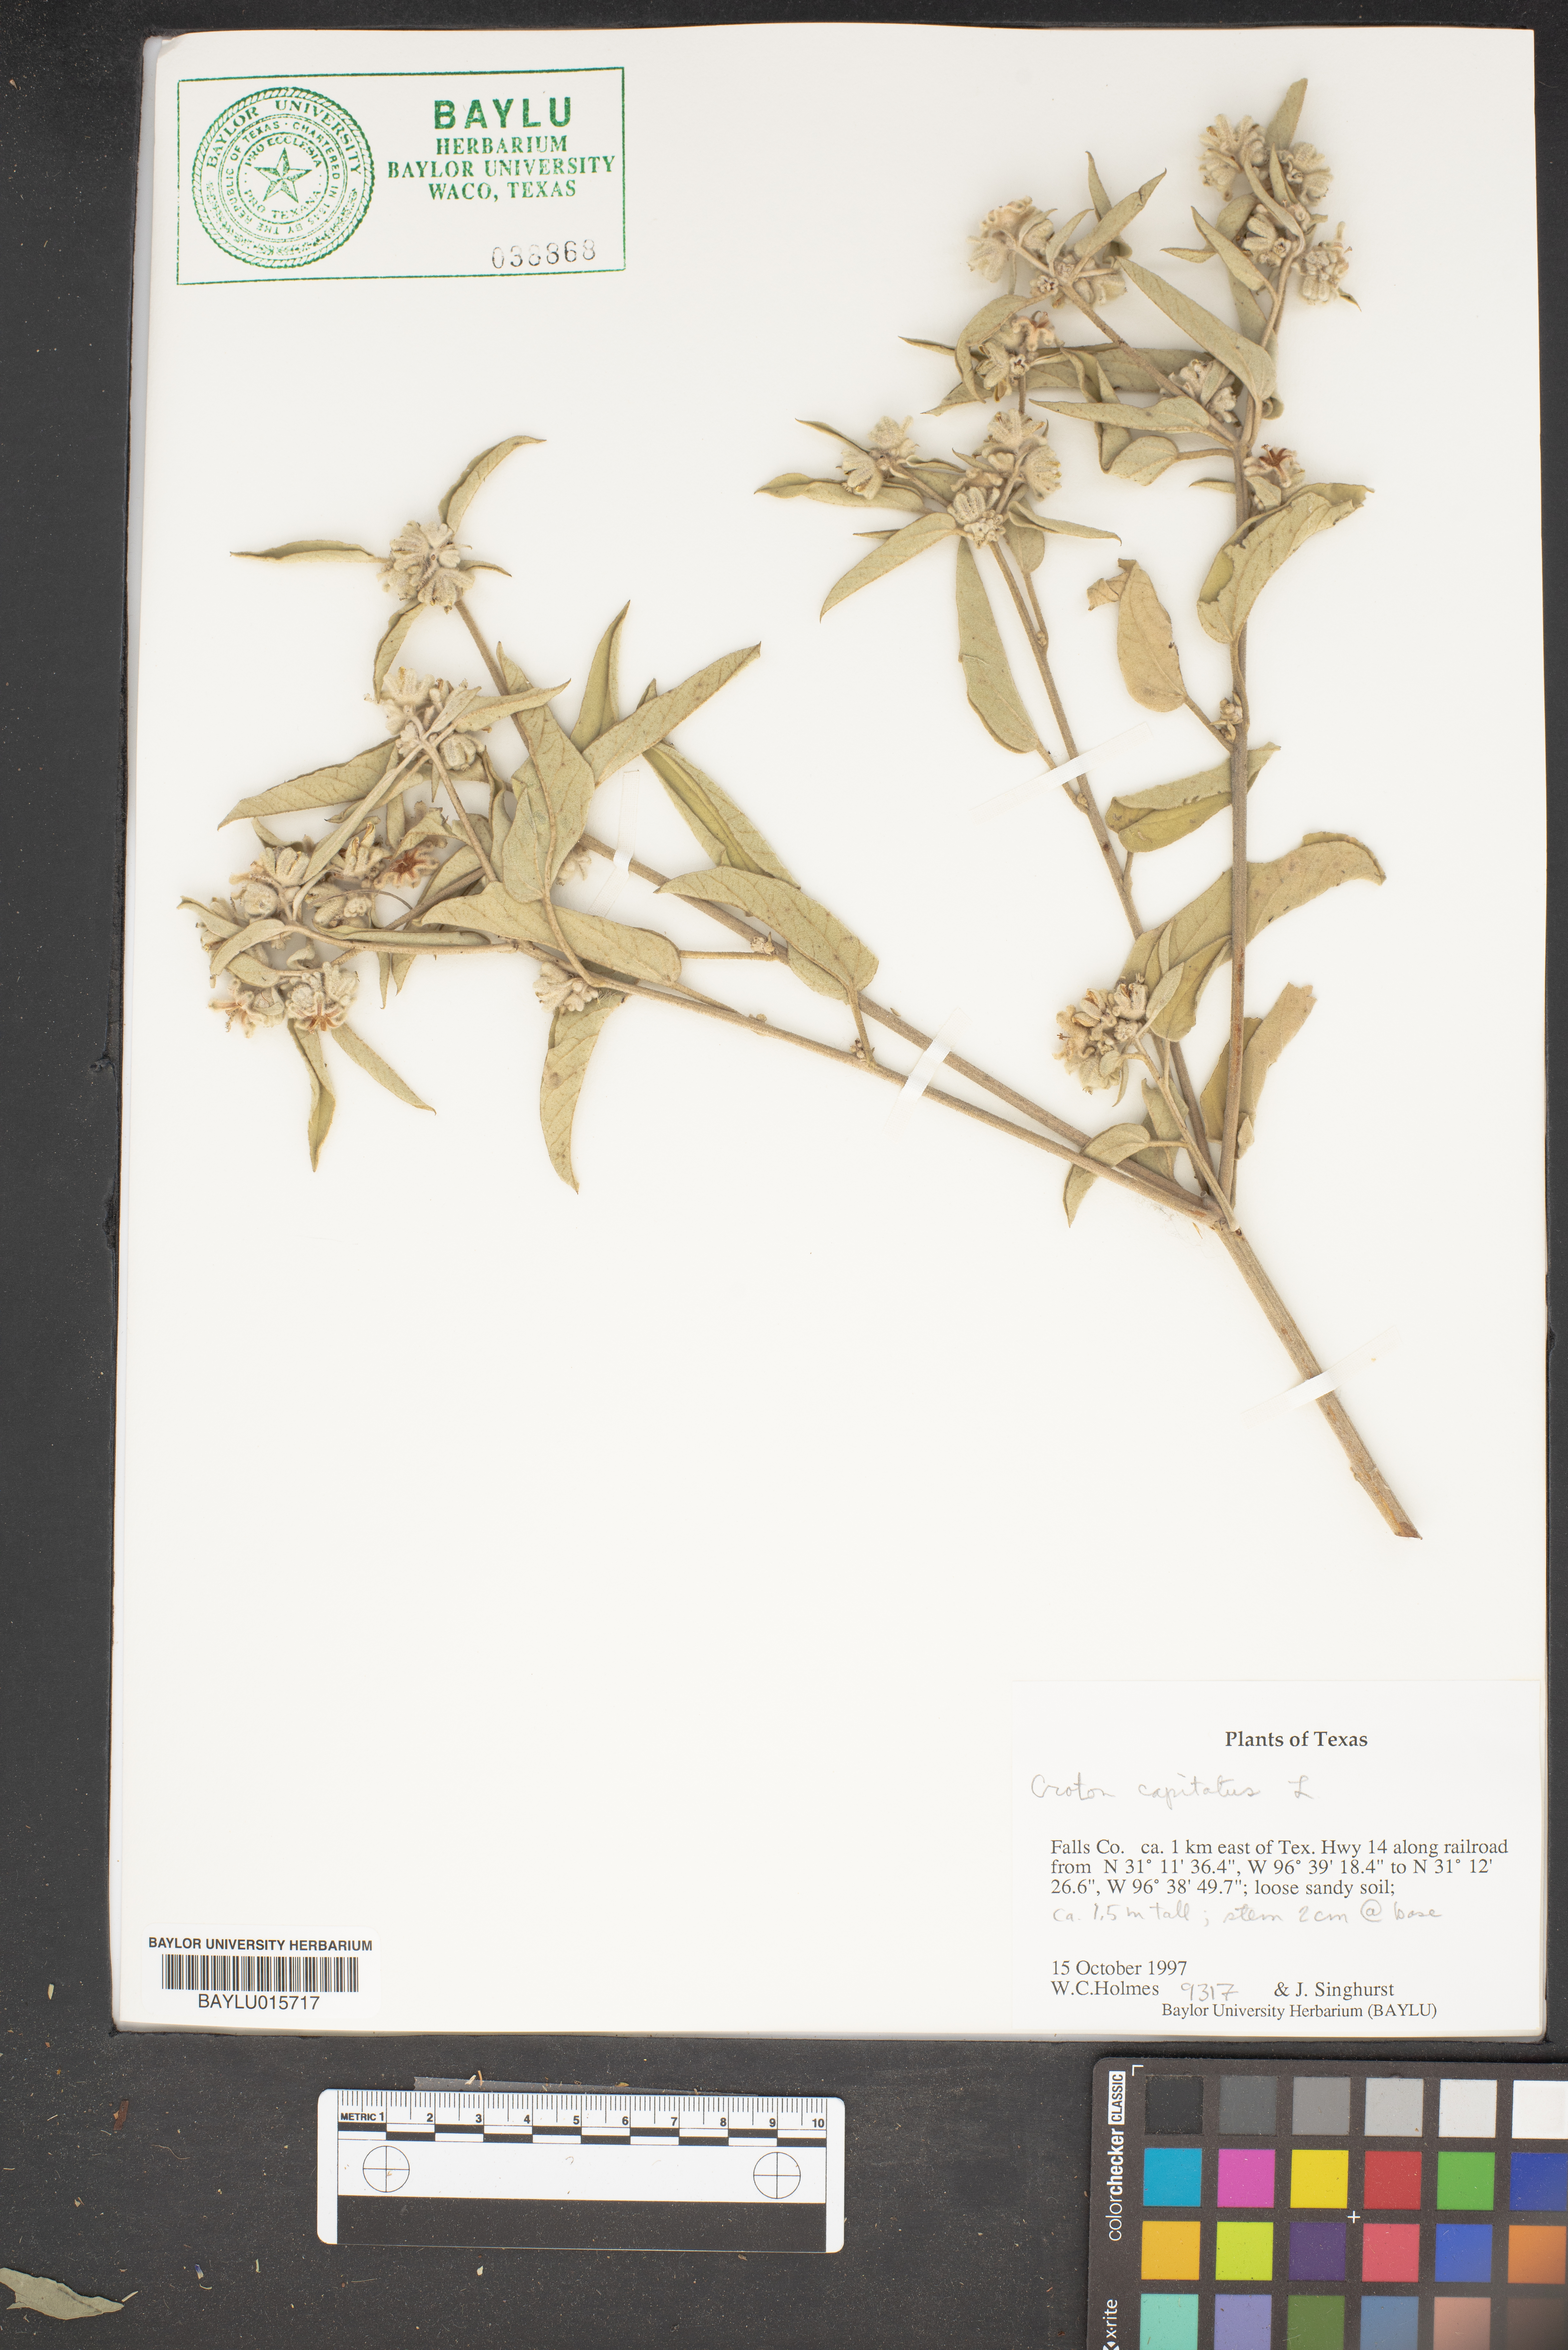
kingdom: Plantae
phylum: Tracheophyta
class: Magnoliopsida
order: Malpighiales
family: Euphorbiaceae
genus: Croton
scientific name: Croton capitatus
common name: Woolly croton
